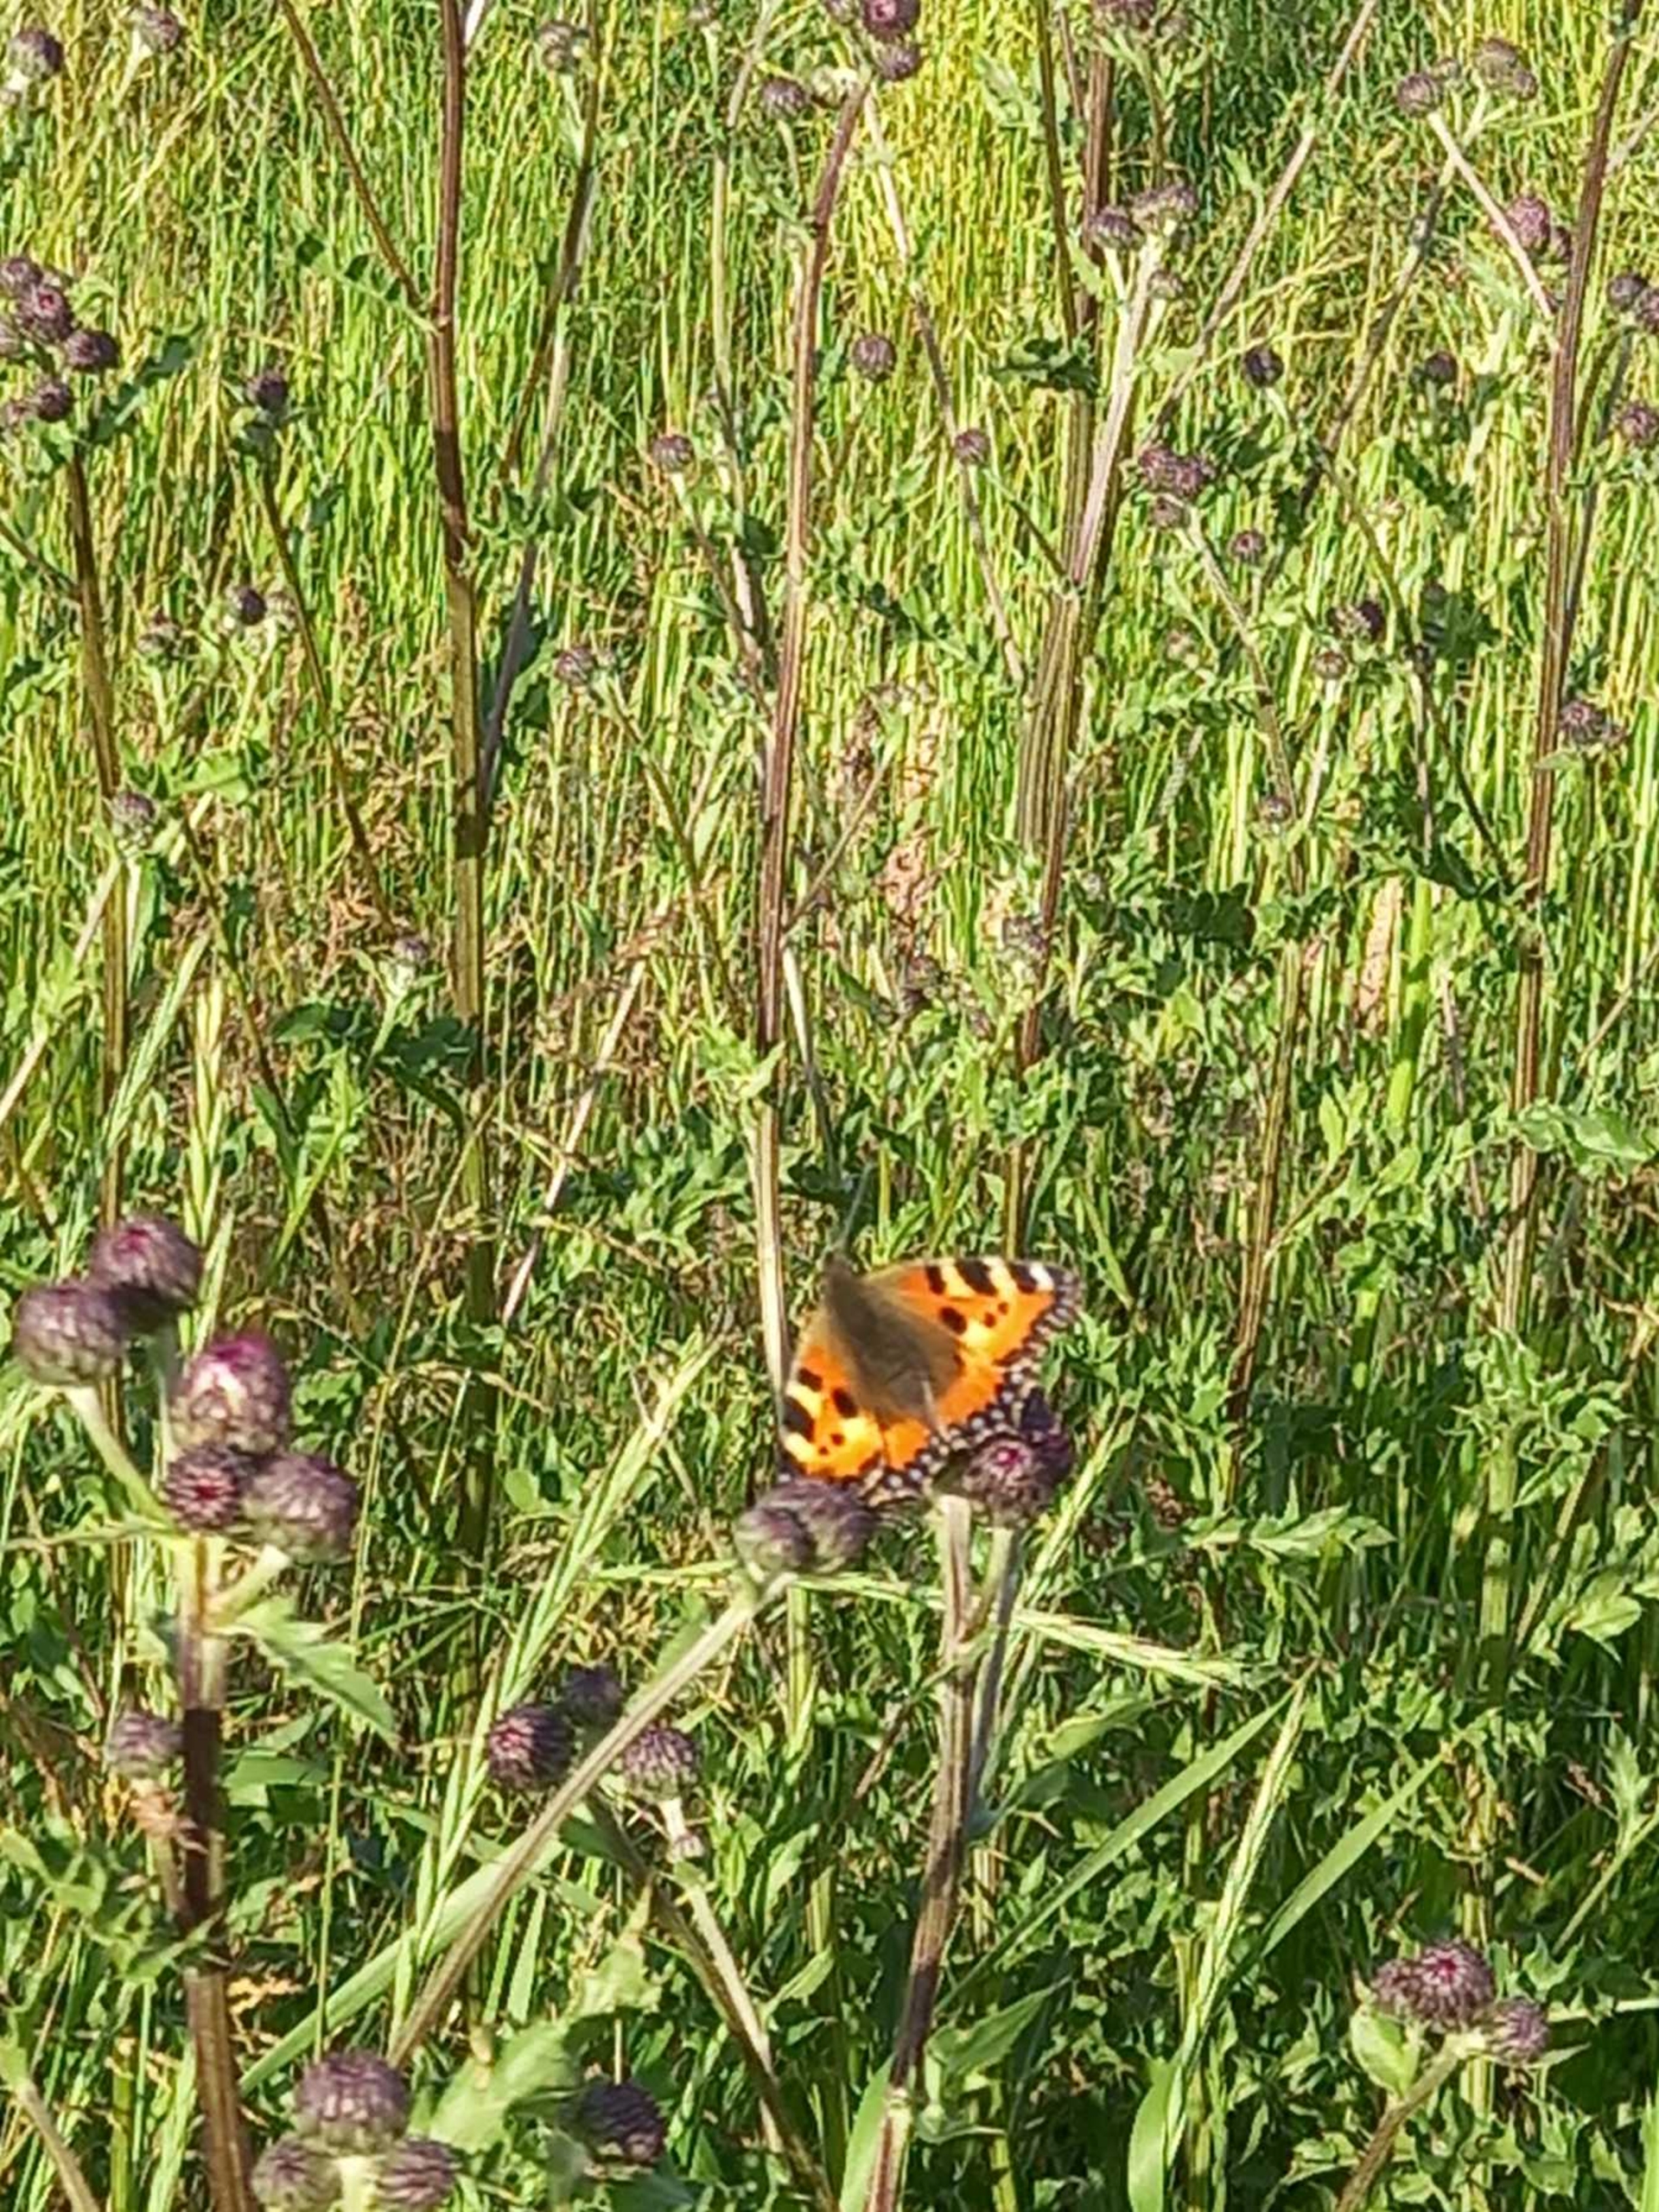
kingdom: Animalia
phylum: Arthropoda
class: Insecta
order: Lepidoptera
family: Nymphalidae
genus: Aglais
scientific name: Aglais urticae
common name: Nældens takvinge
